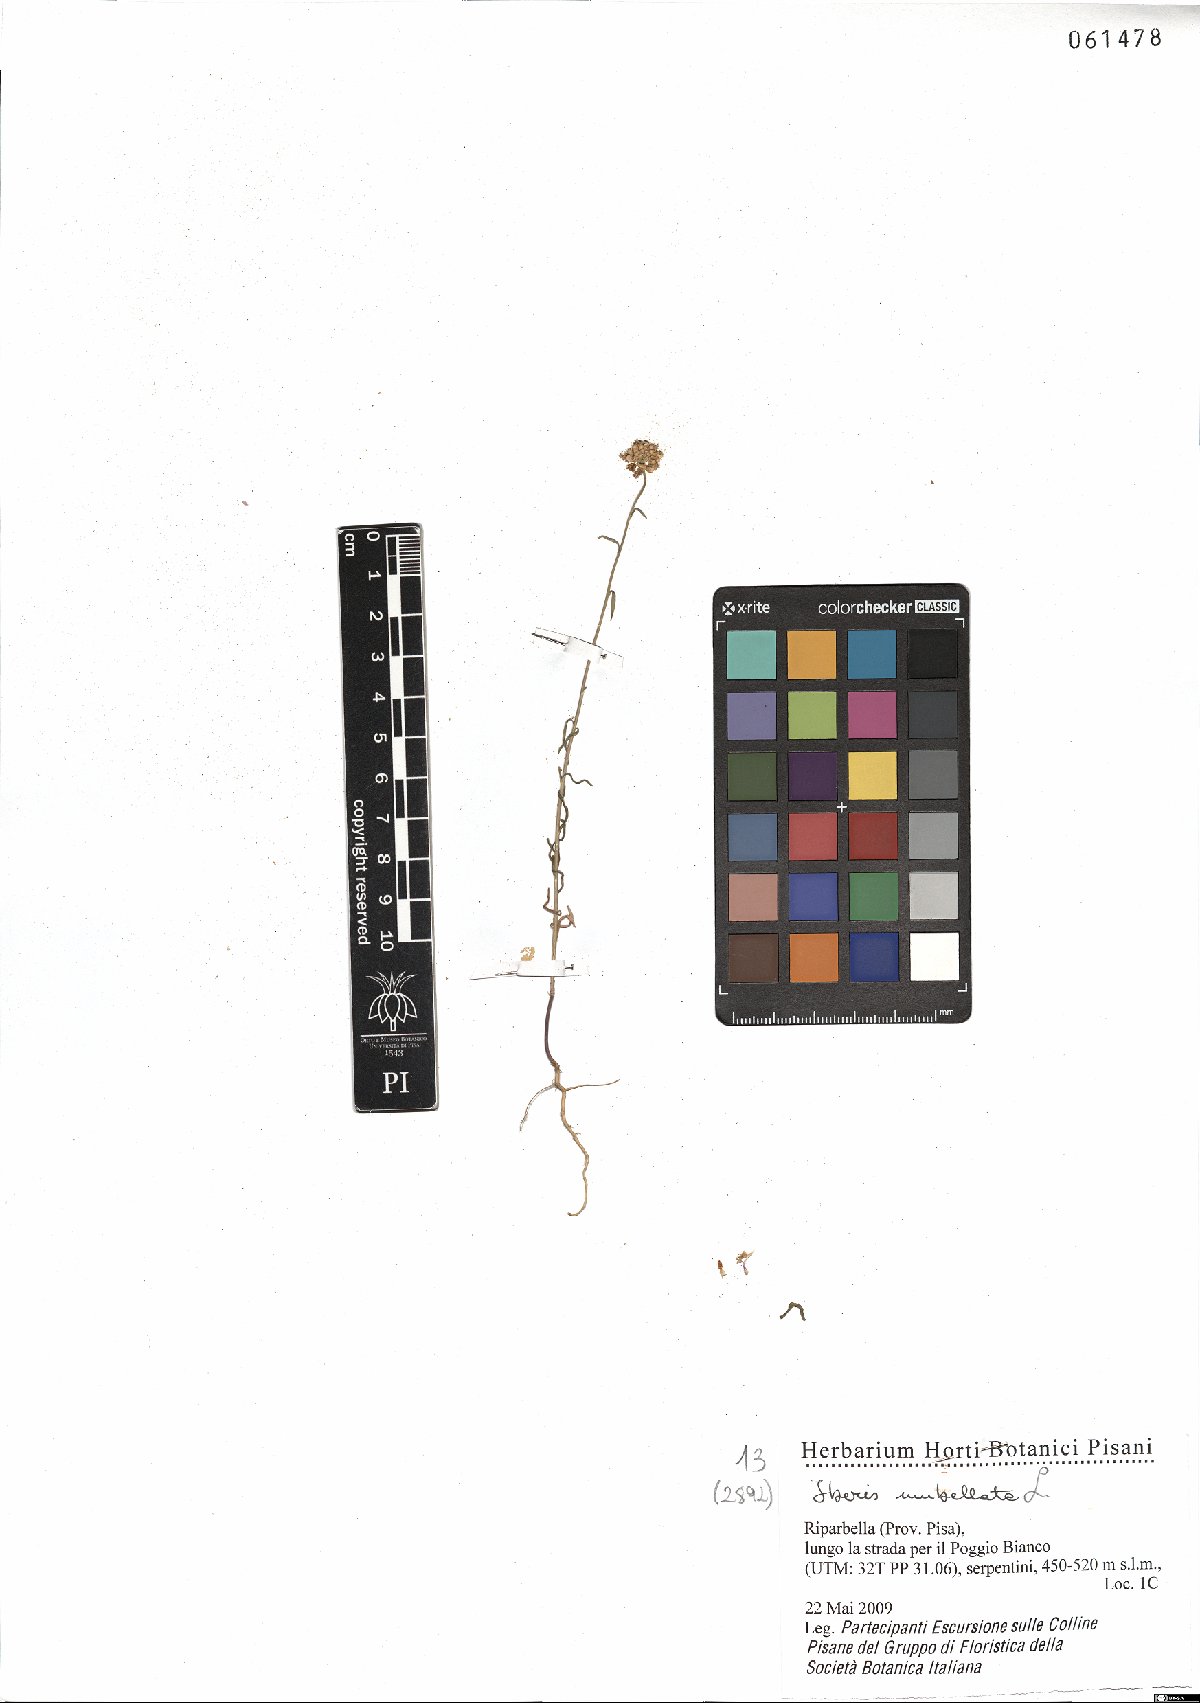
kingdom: Plantae
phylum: Tracheophyta
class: Magnoliopsida
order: Brassicales
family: Brassicaceae
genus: Iberis
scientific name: Iberis umbellata
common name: Globe candytuft
